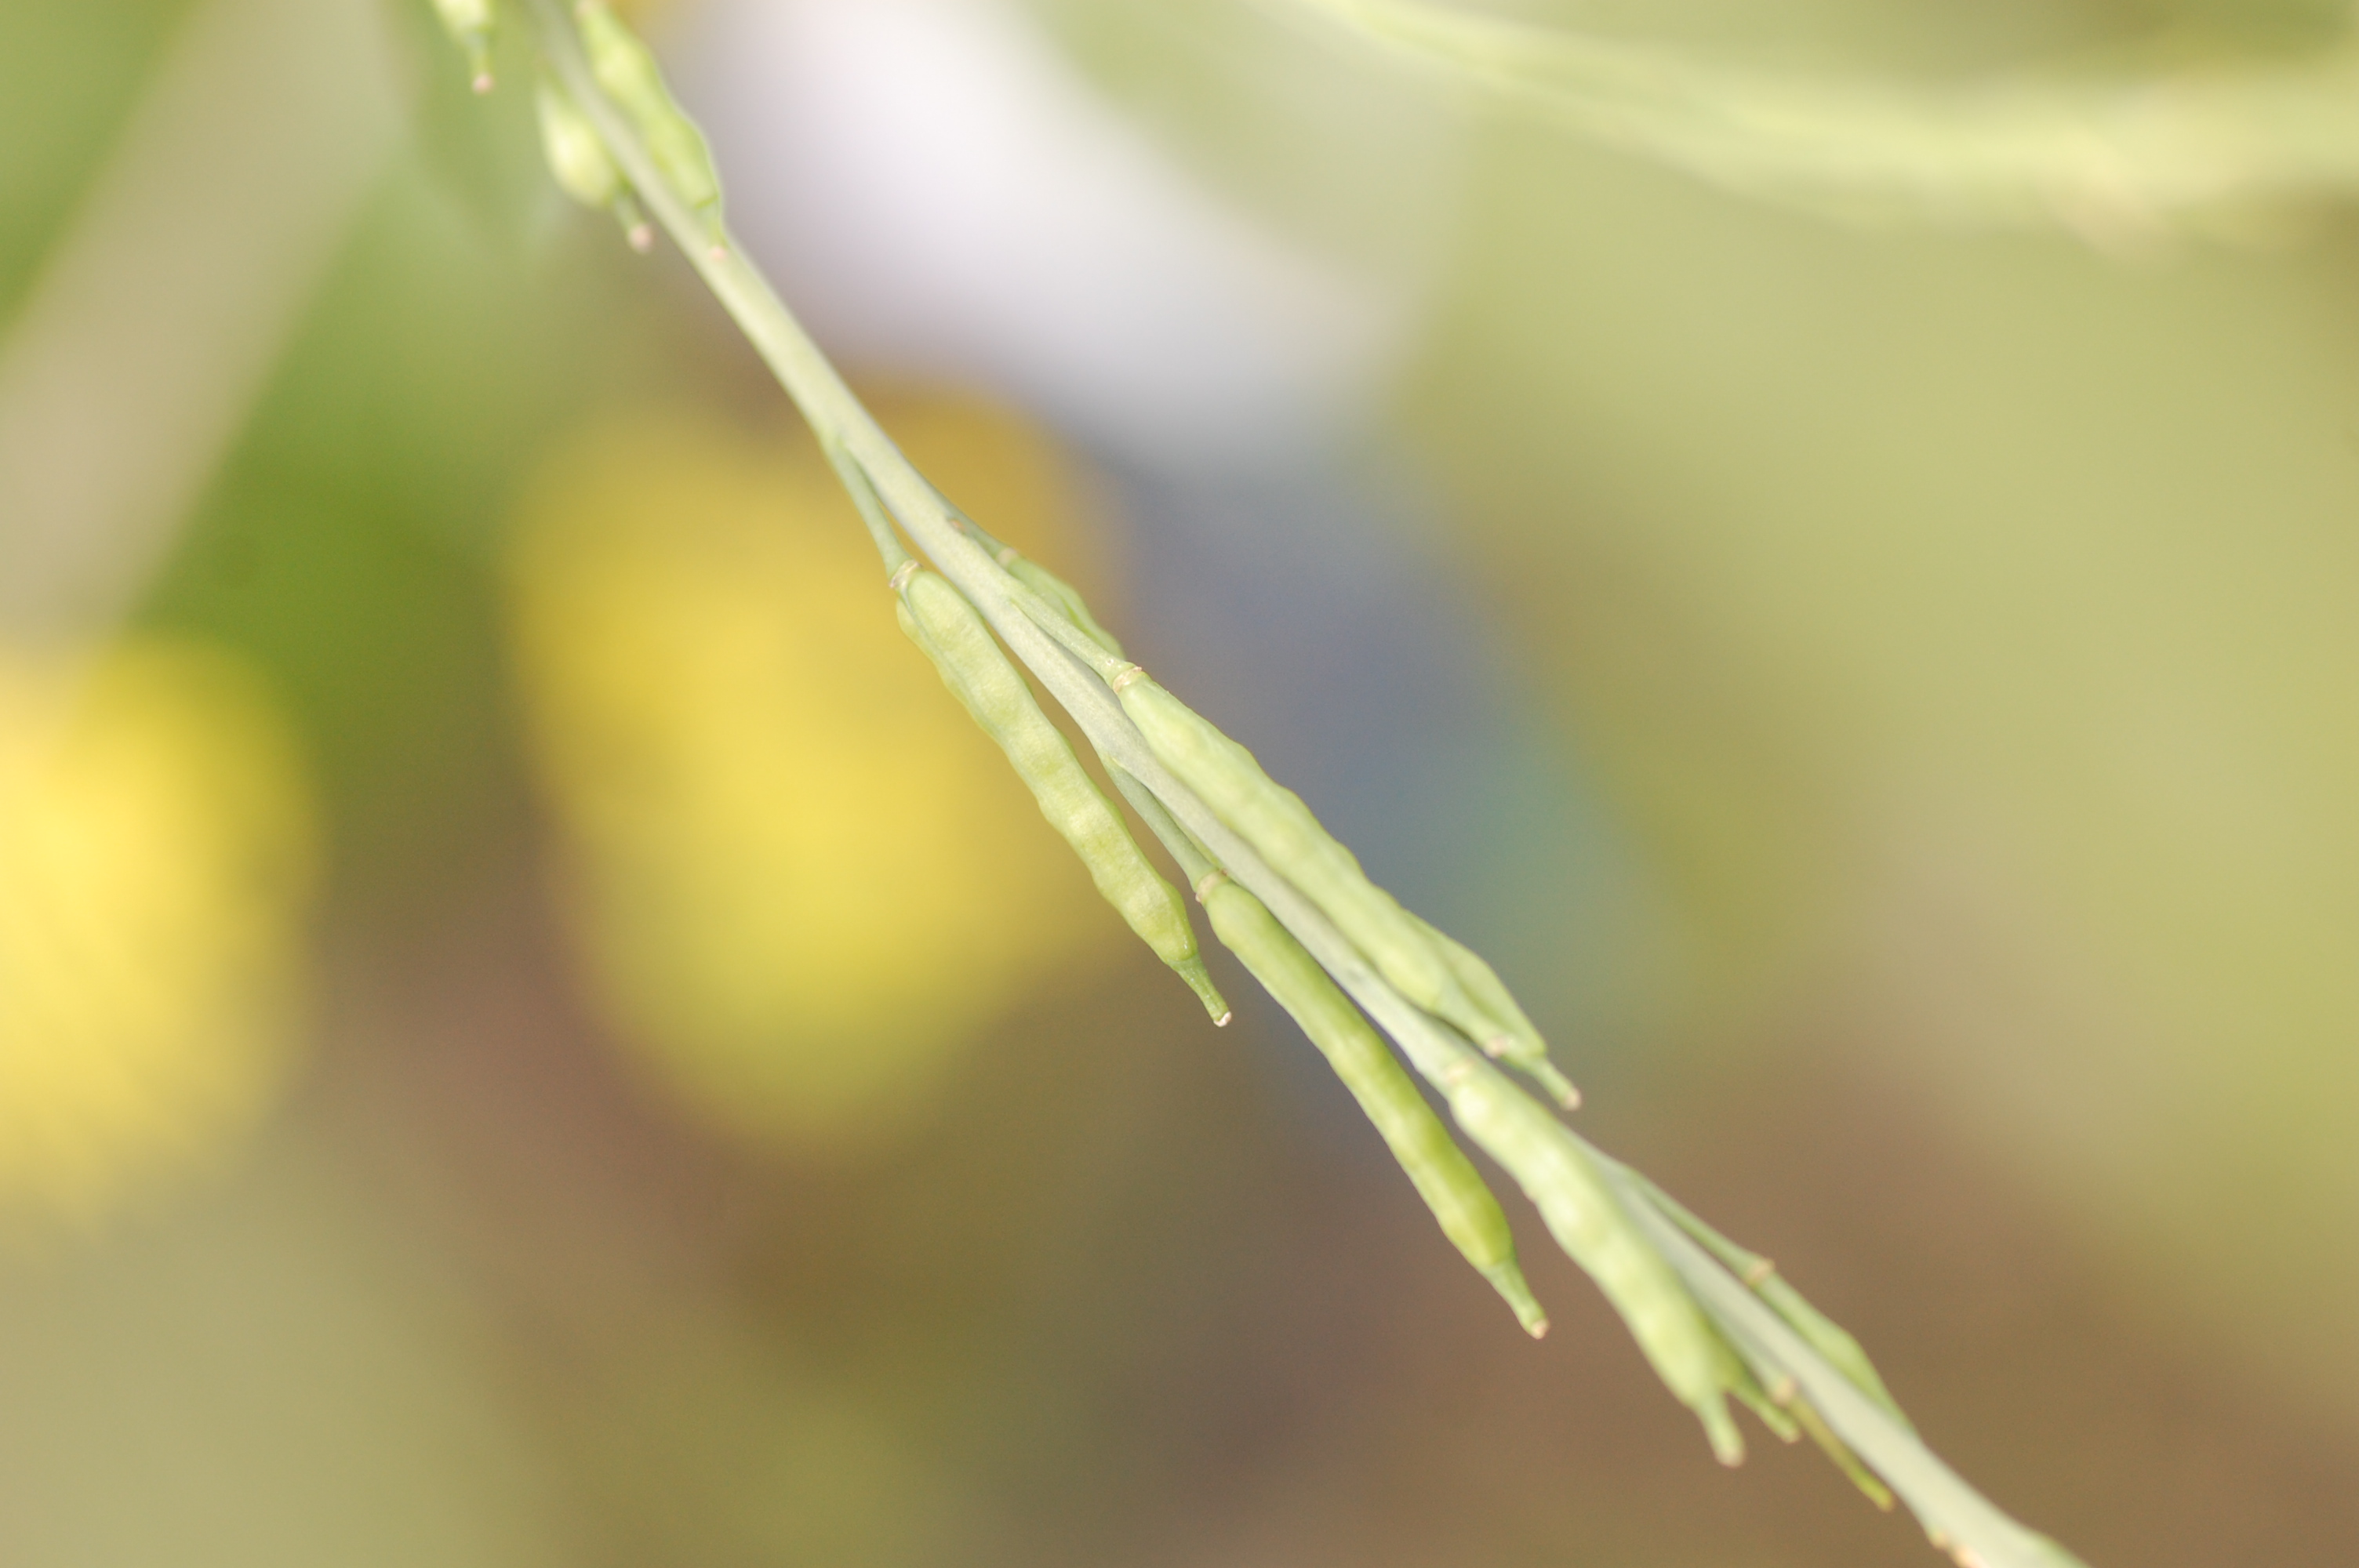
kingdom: Plantae
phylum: Tracheophyta
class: Magnoliopsida
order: Brassicales
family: Brassicaceae
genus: Brassica
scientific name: Brassica nigra
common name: Black mustard
